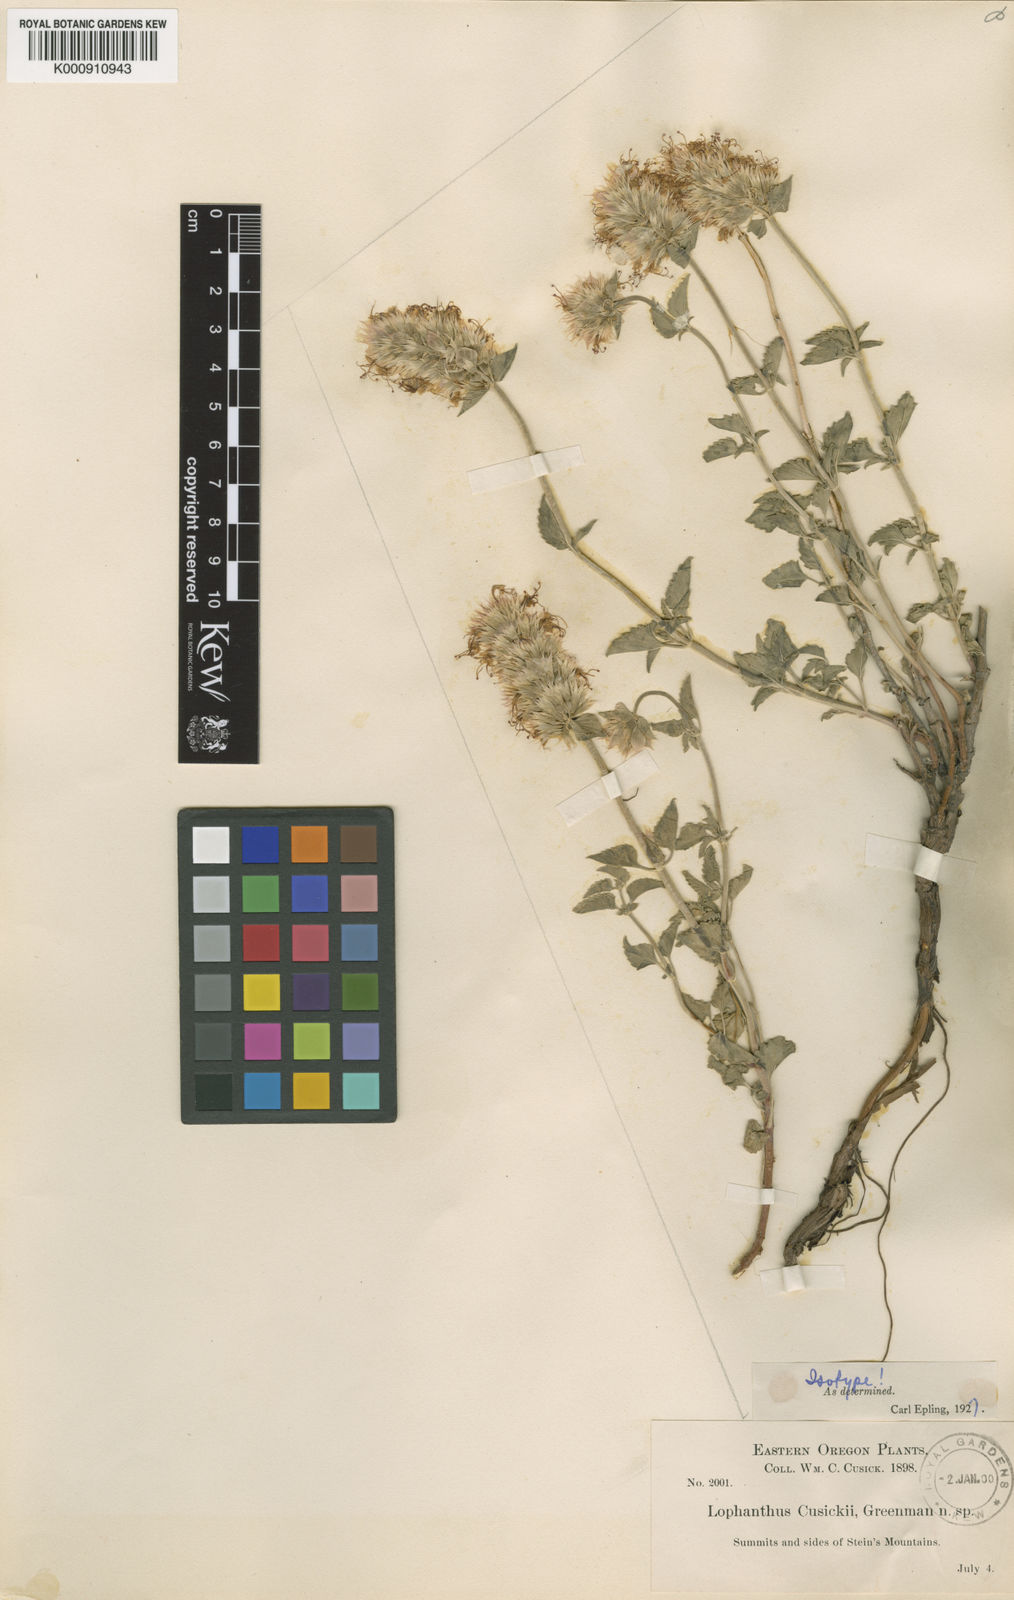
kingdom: Plantae
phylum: Tracheophyta
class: Magnoliopsida
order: Lamiales
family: Lamiaceae
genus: Agastache
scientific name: Agastache cusickii
